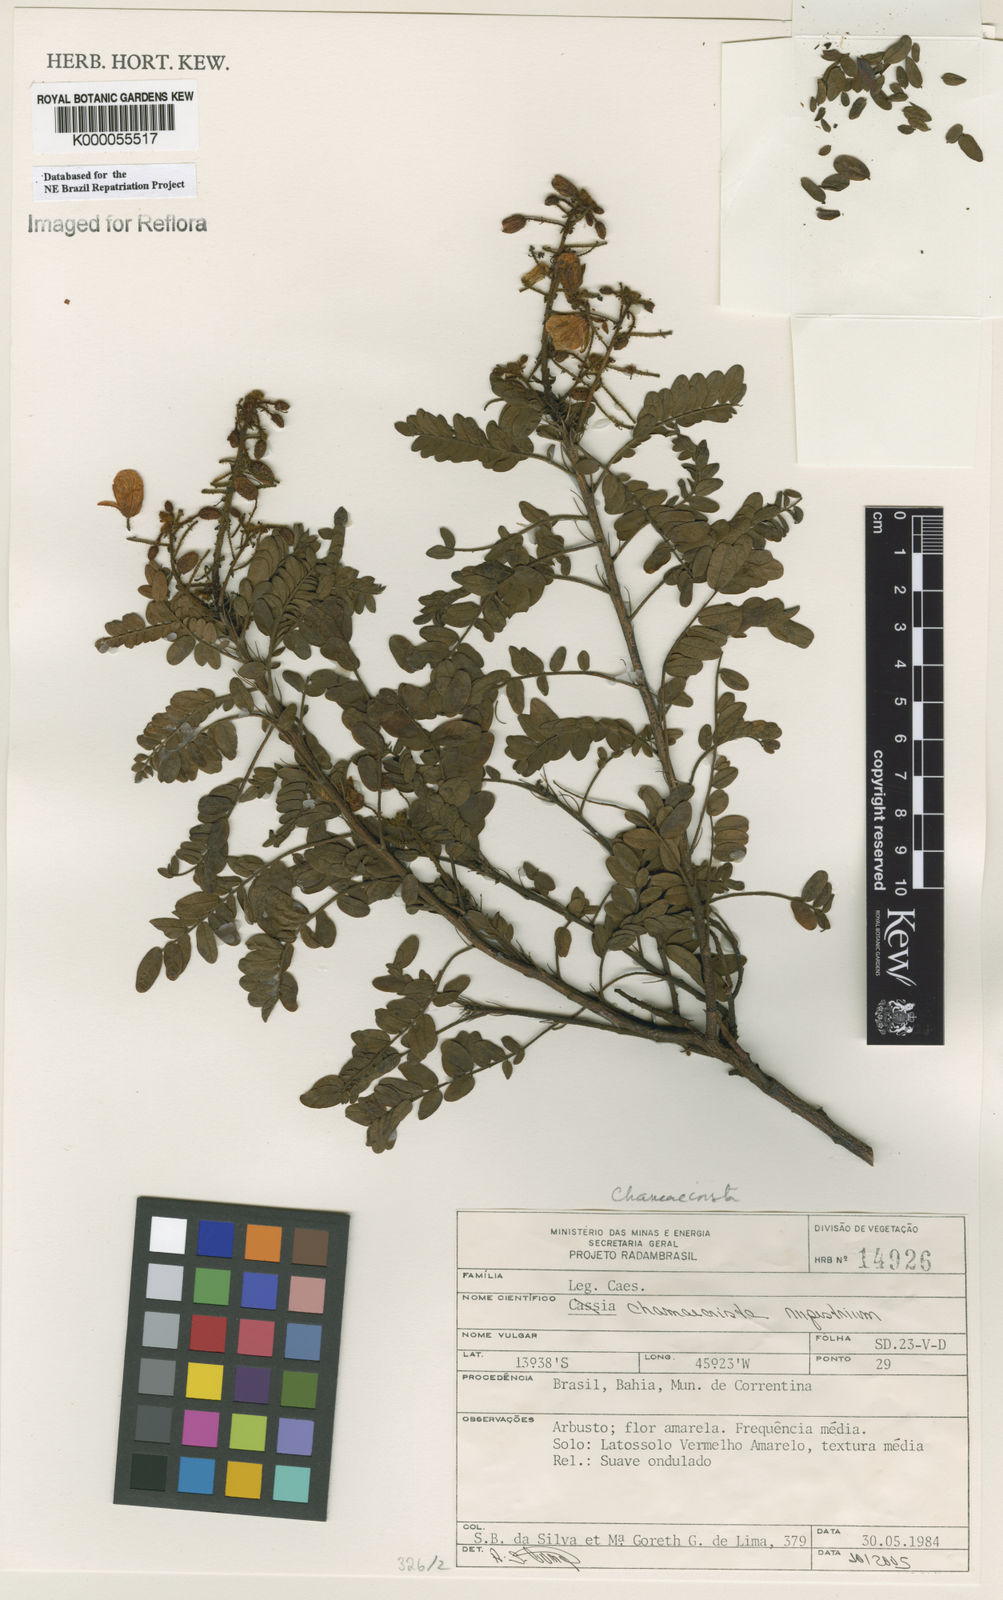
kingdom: Plantae
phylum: Tracheophyta
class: Magnoliopsida
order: Fabales
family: Fabaceae
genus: Chamaecrista
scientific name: Chamaecrista
